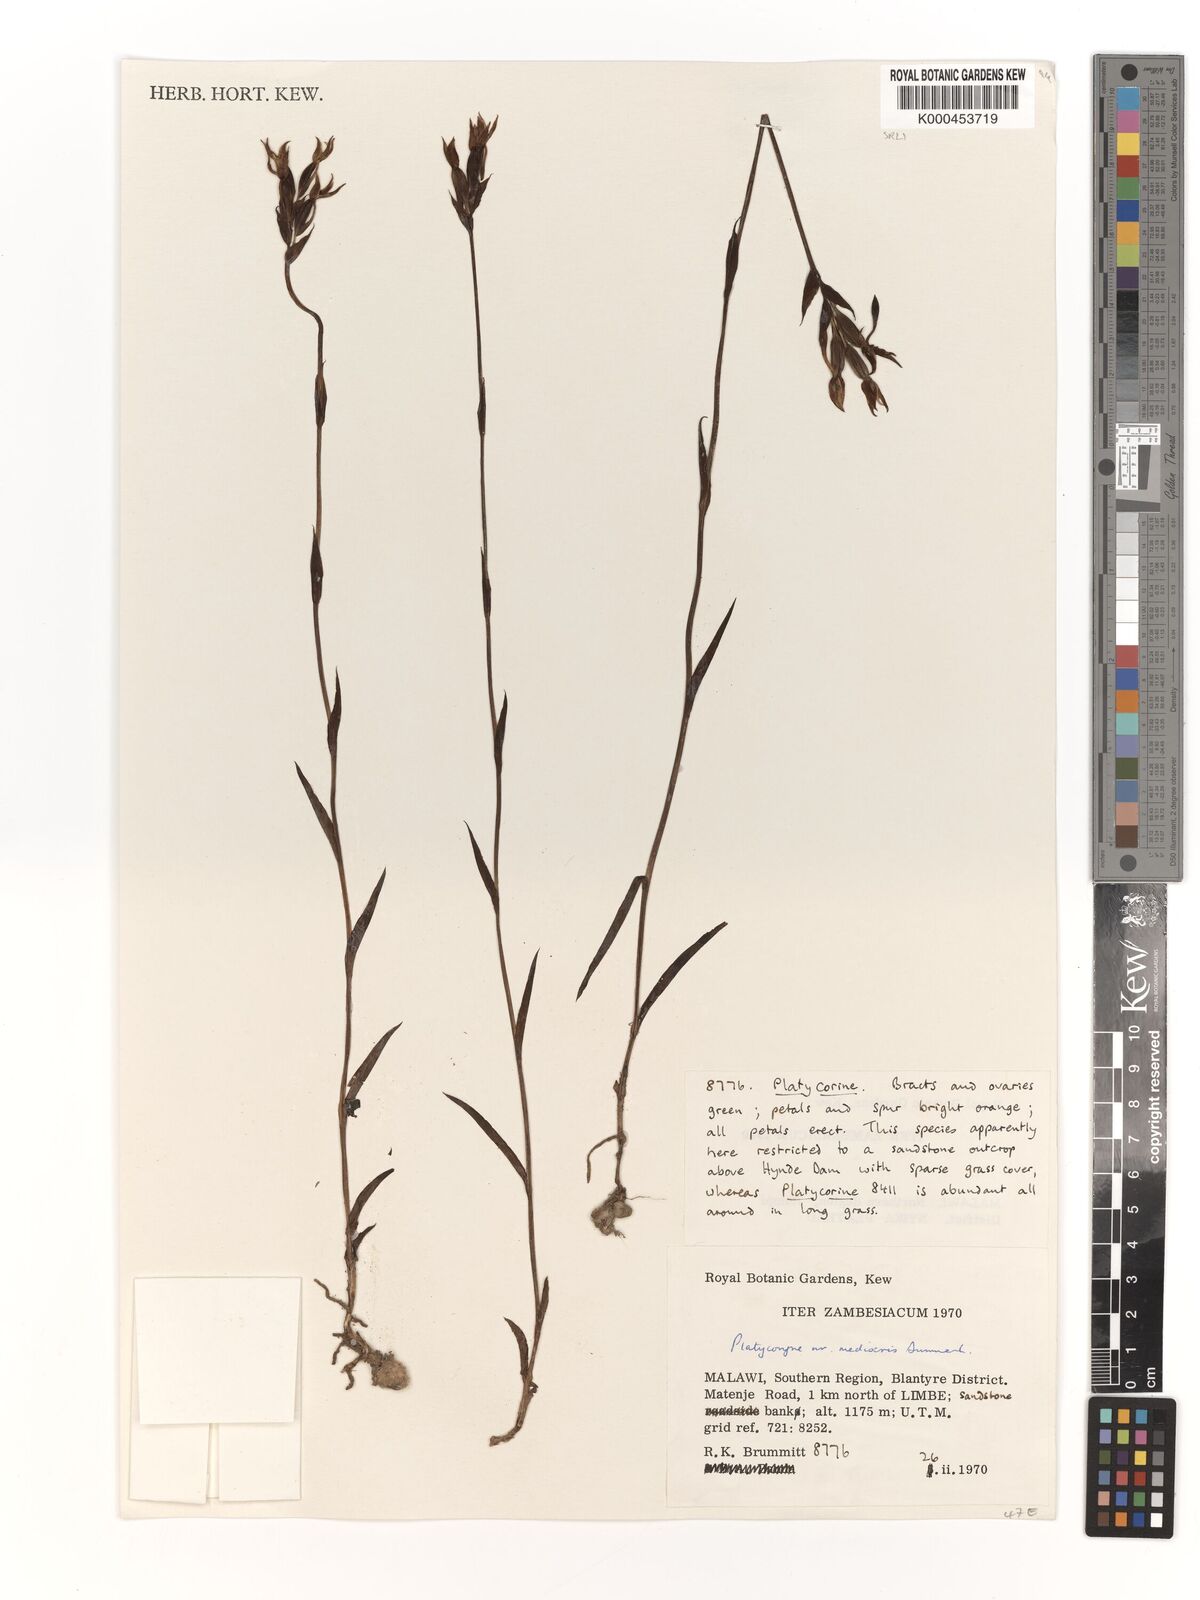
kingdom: Plantae
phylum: Tracheophyta
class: Liliopsida
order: Asparagales
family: Orchidaceae
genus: Platycoryne
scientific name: Platycoryne mediocris
